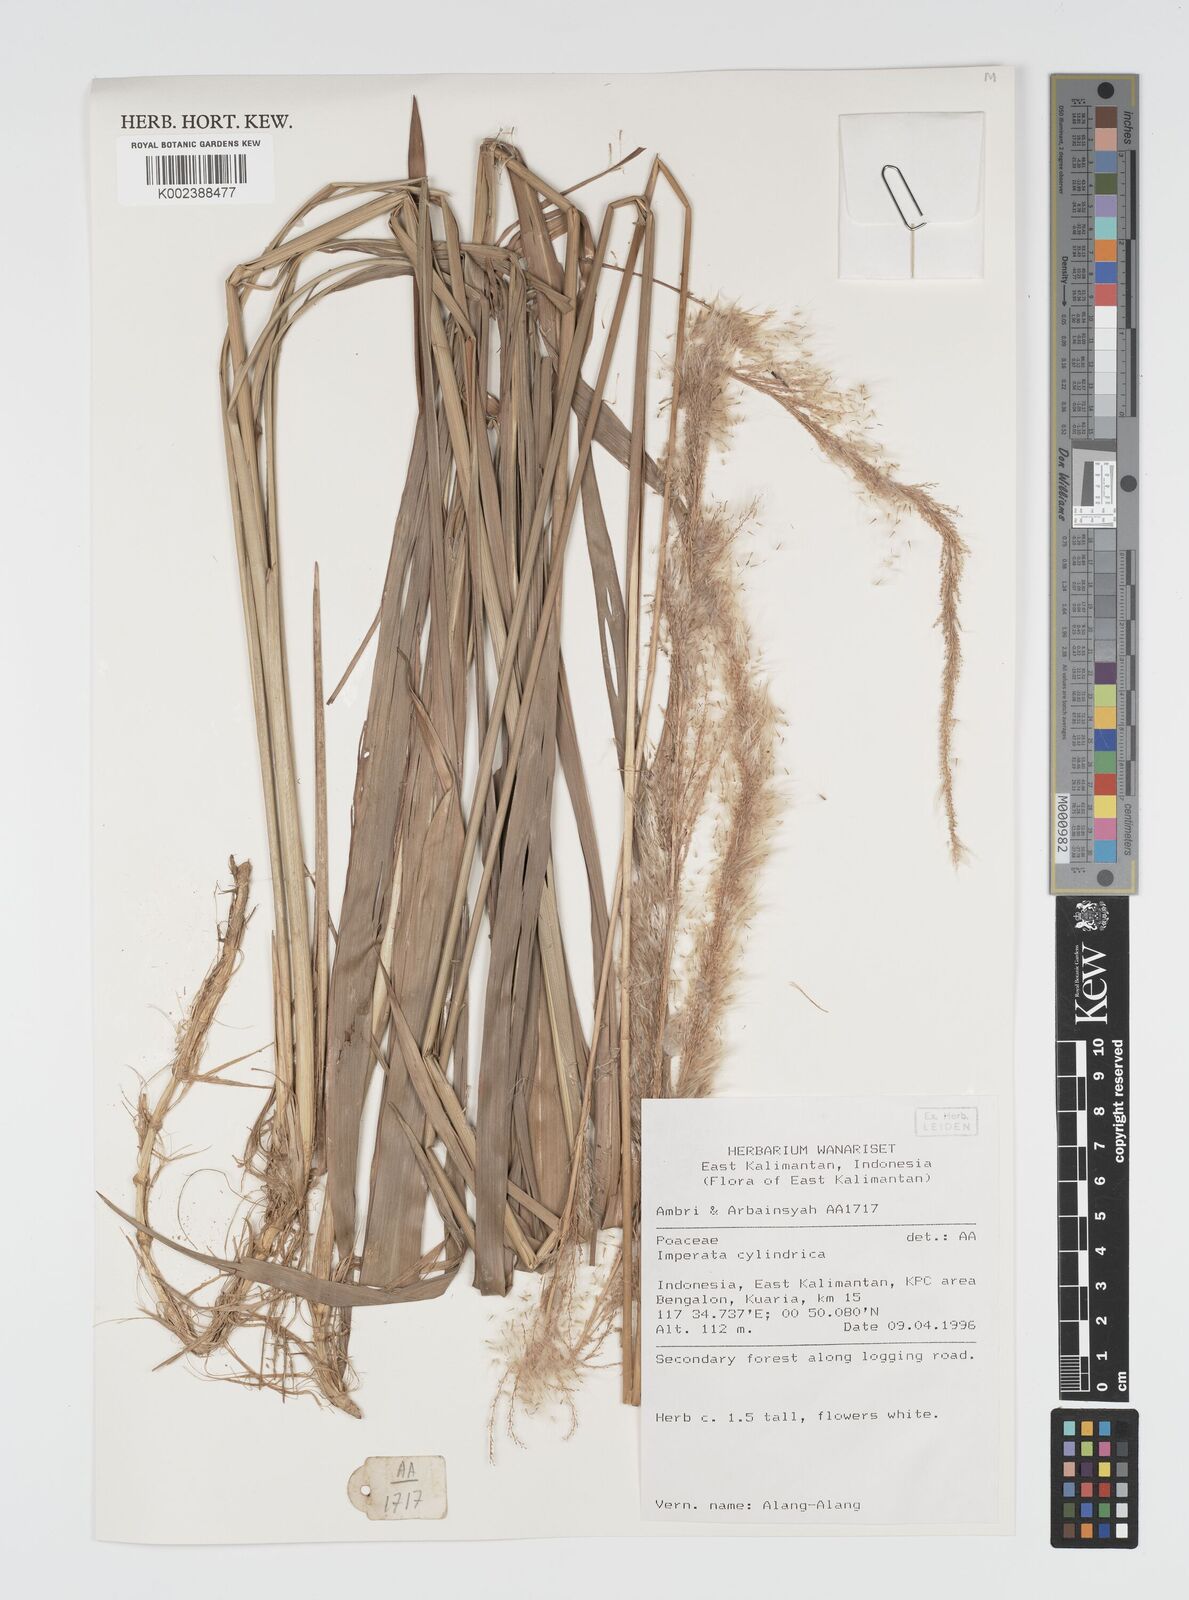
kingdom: Plantae
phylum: Tracheophyta
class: Liliopsida
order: Poales
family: Poaceae
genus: Imperata
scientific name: Imperata cylindrica
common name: Cogongrass
